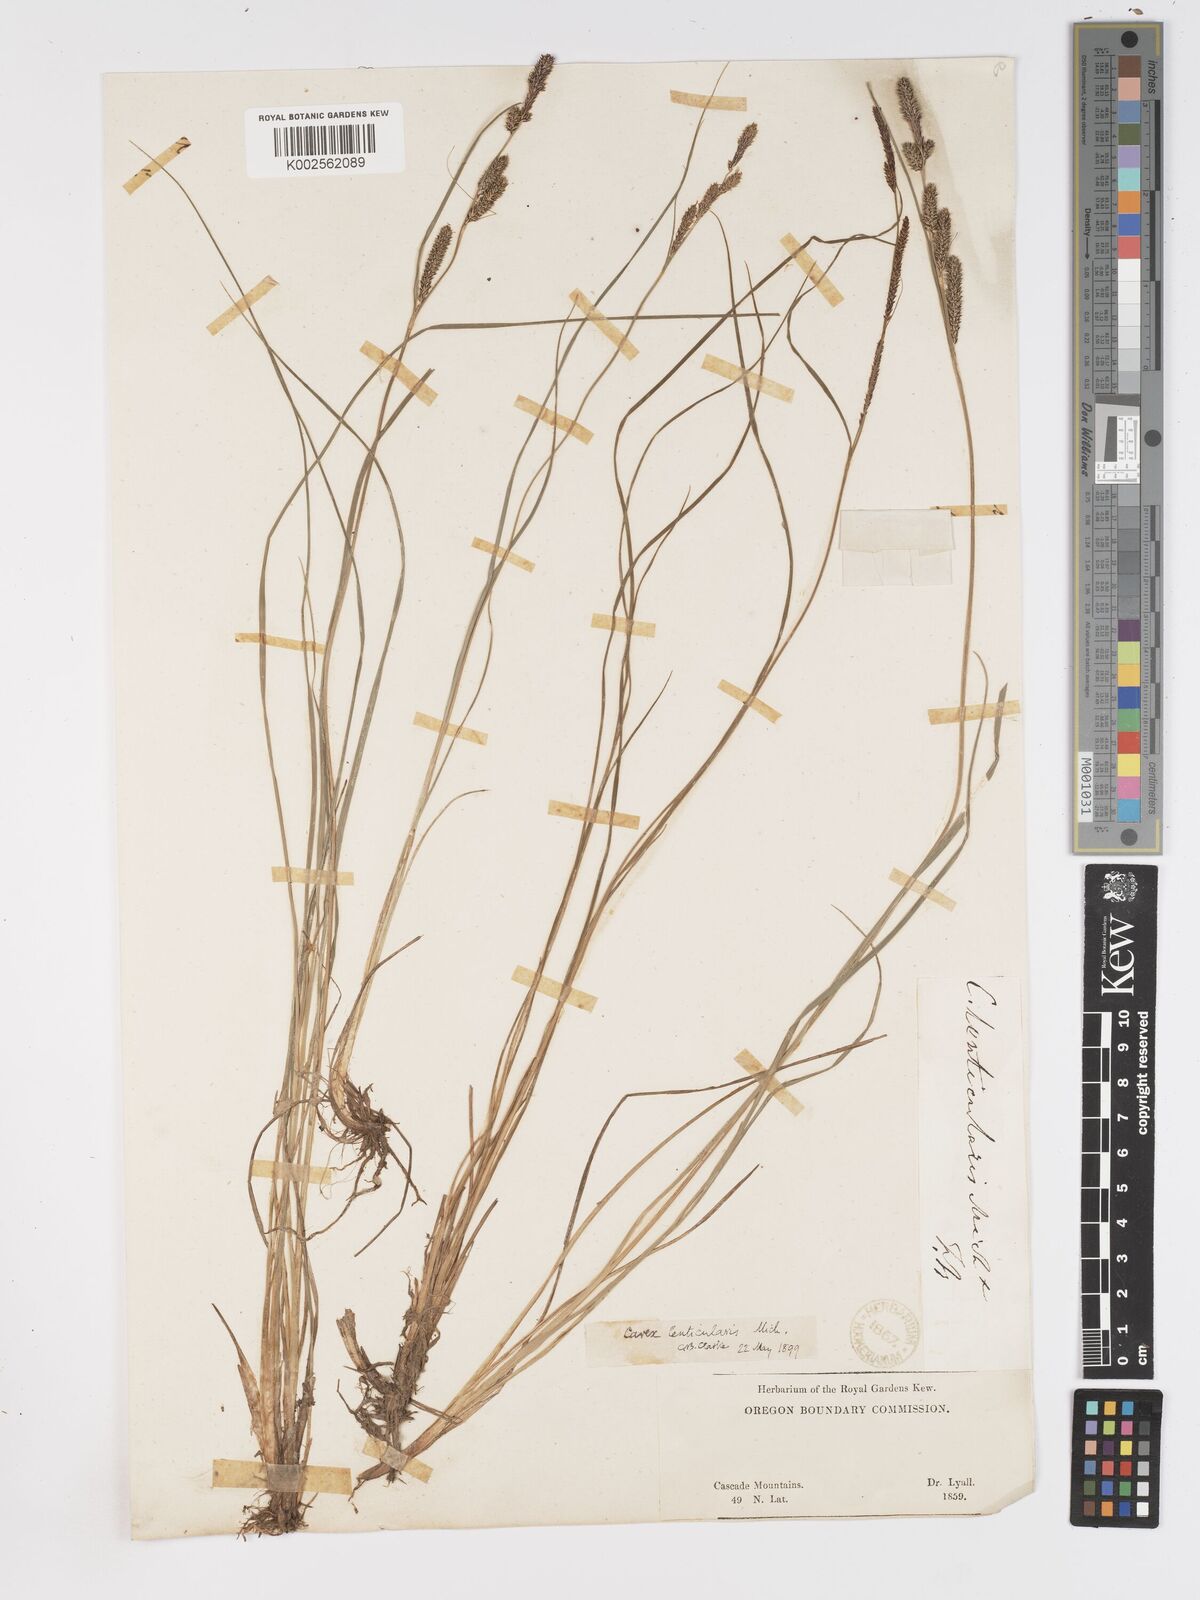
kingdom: Plantae
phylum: Tracheophyta
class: Liliopsida
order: Poales
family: Cyperaceae
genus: Carex
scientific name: Carex lenticularis
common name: Lakeshore sedge
